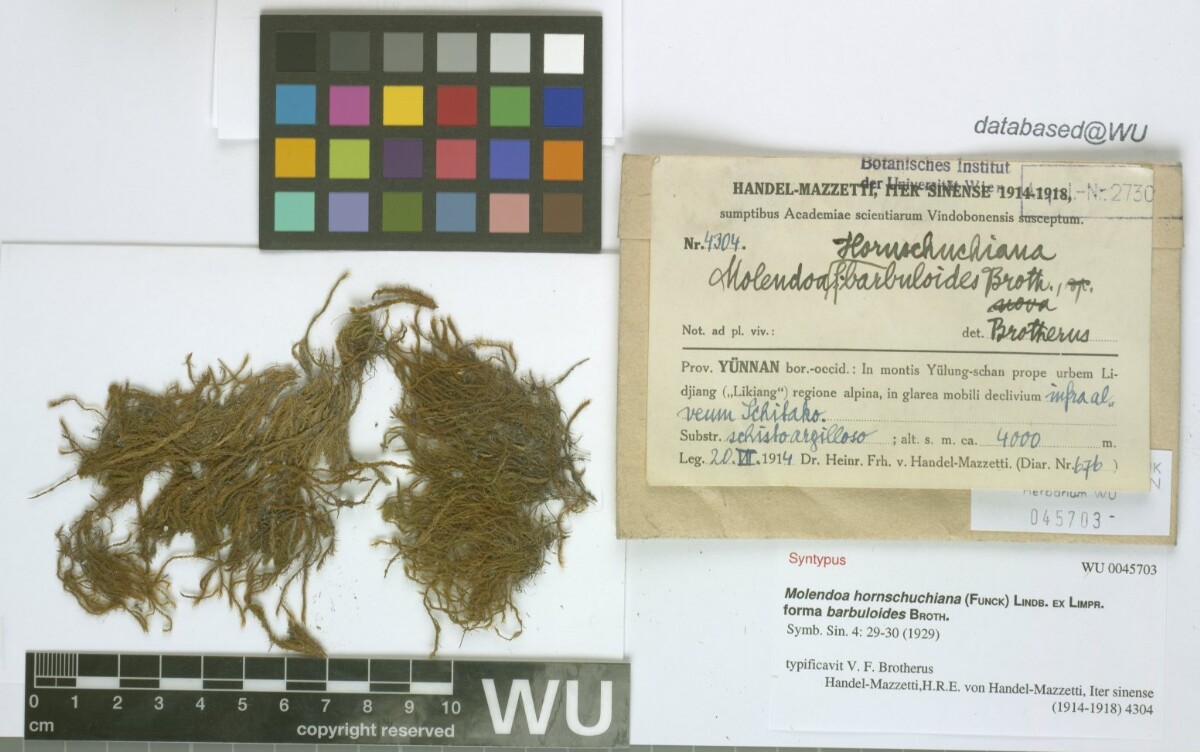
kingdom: Plantae
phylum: Bryophyta
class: Bryopsida
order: Pottiales
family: Pottiaceae
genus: Molendoa
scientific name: Molendoa hornschuchiana
